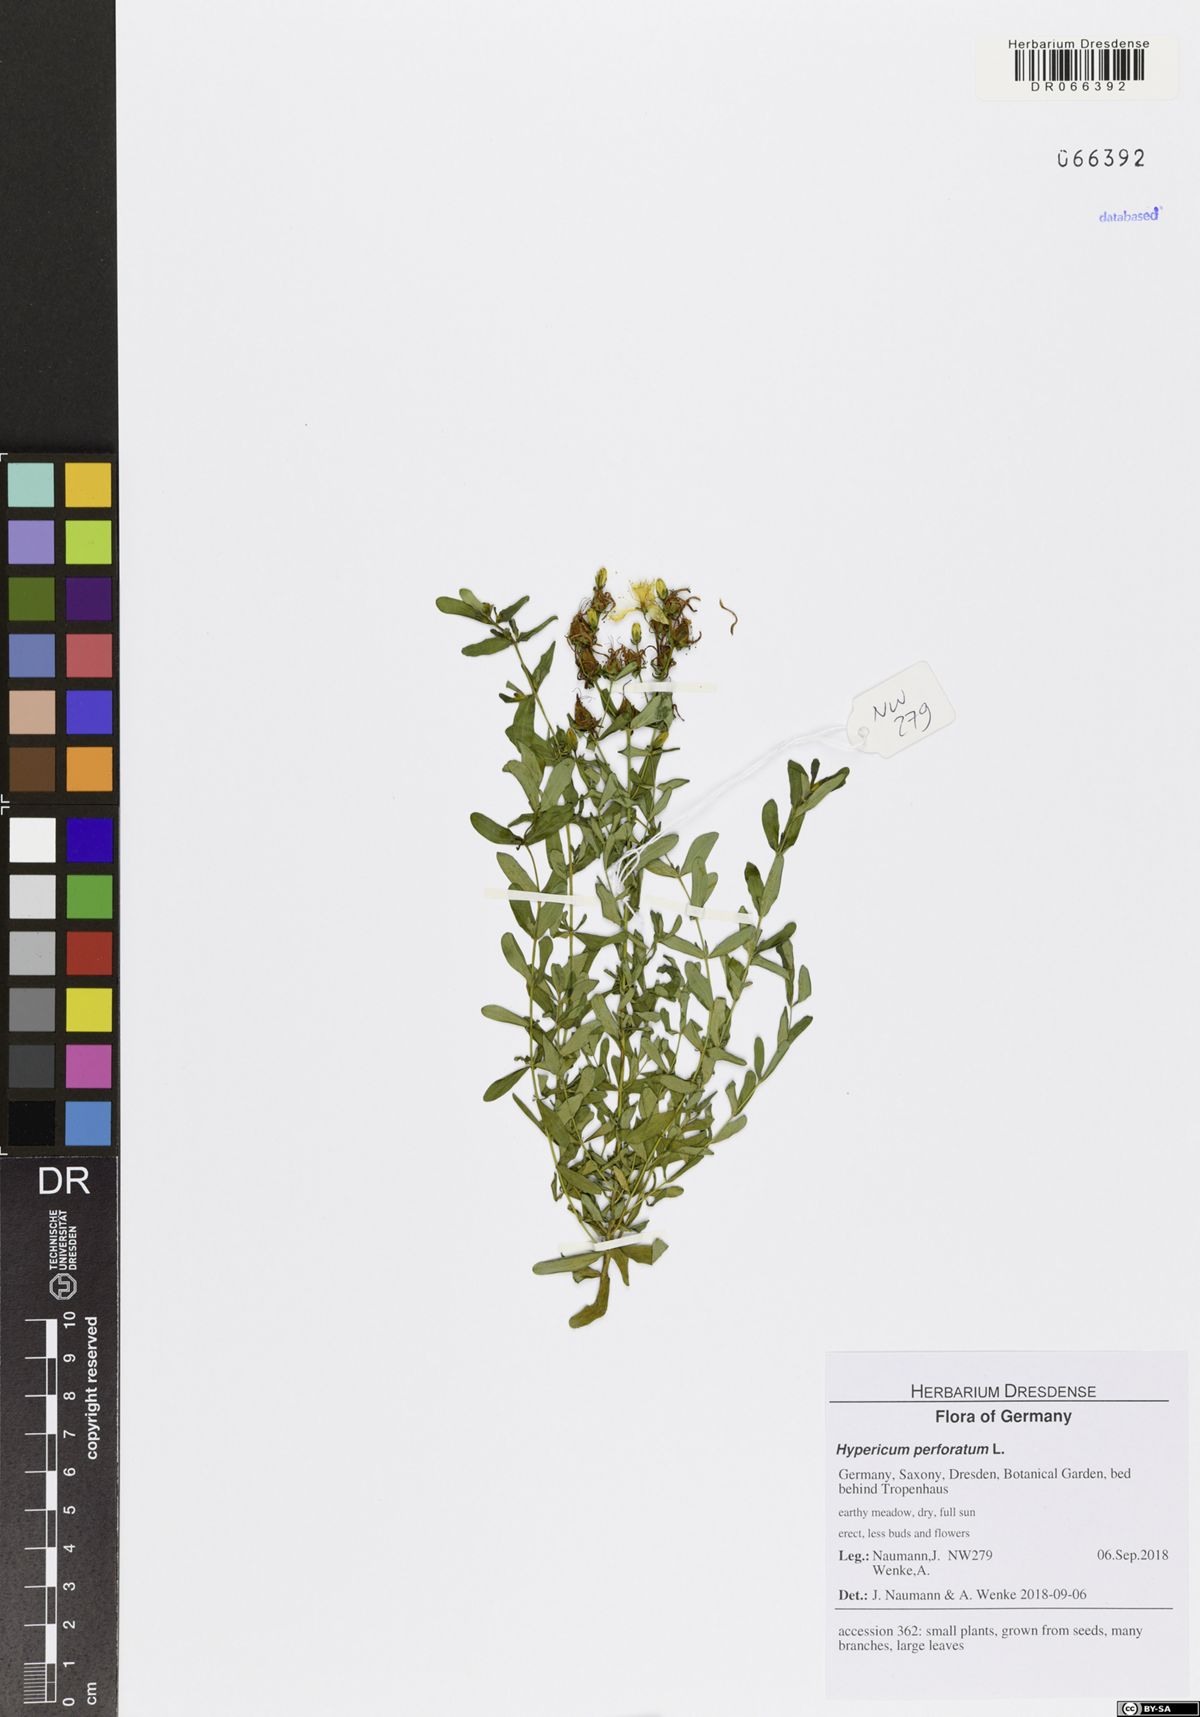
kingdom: Plantae
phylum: Tracheophyta
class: Magnoliopsida
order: Malpighiales
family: Hypericaceae
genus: Hypericum
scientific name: Hypericum perforatum
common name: Common st. johnswort
